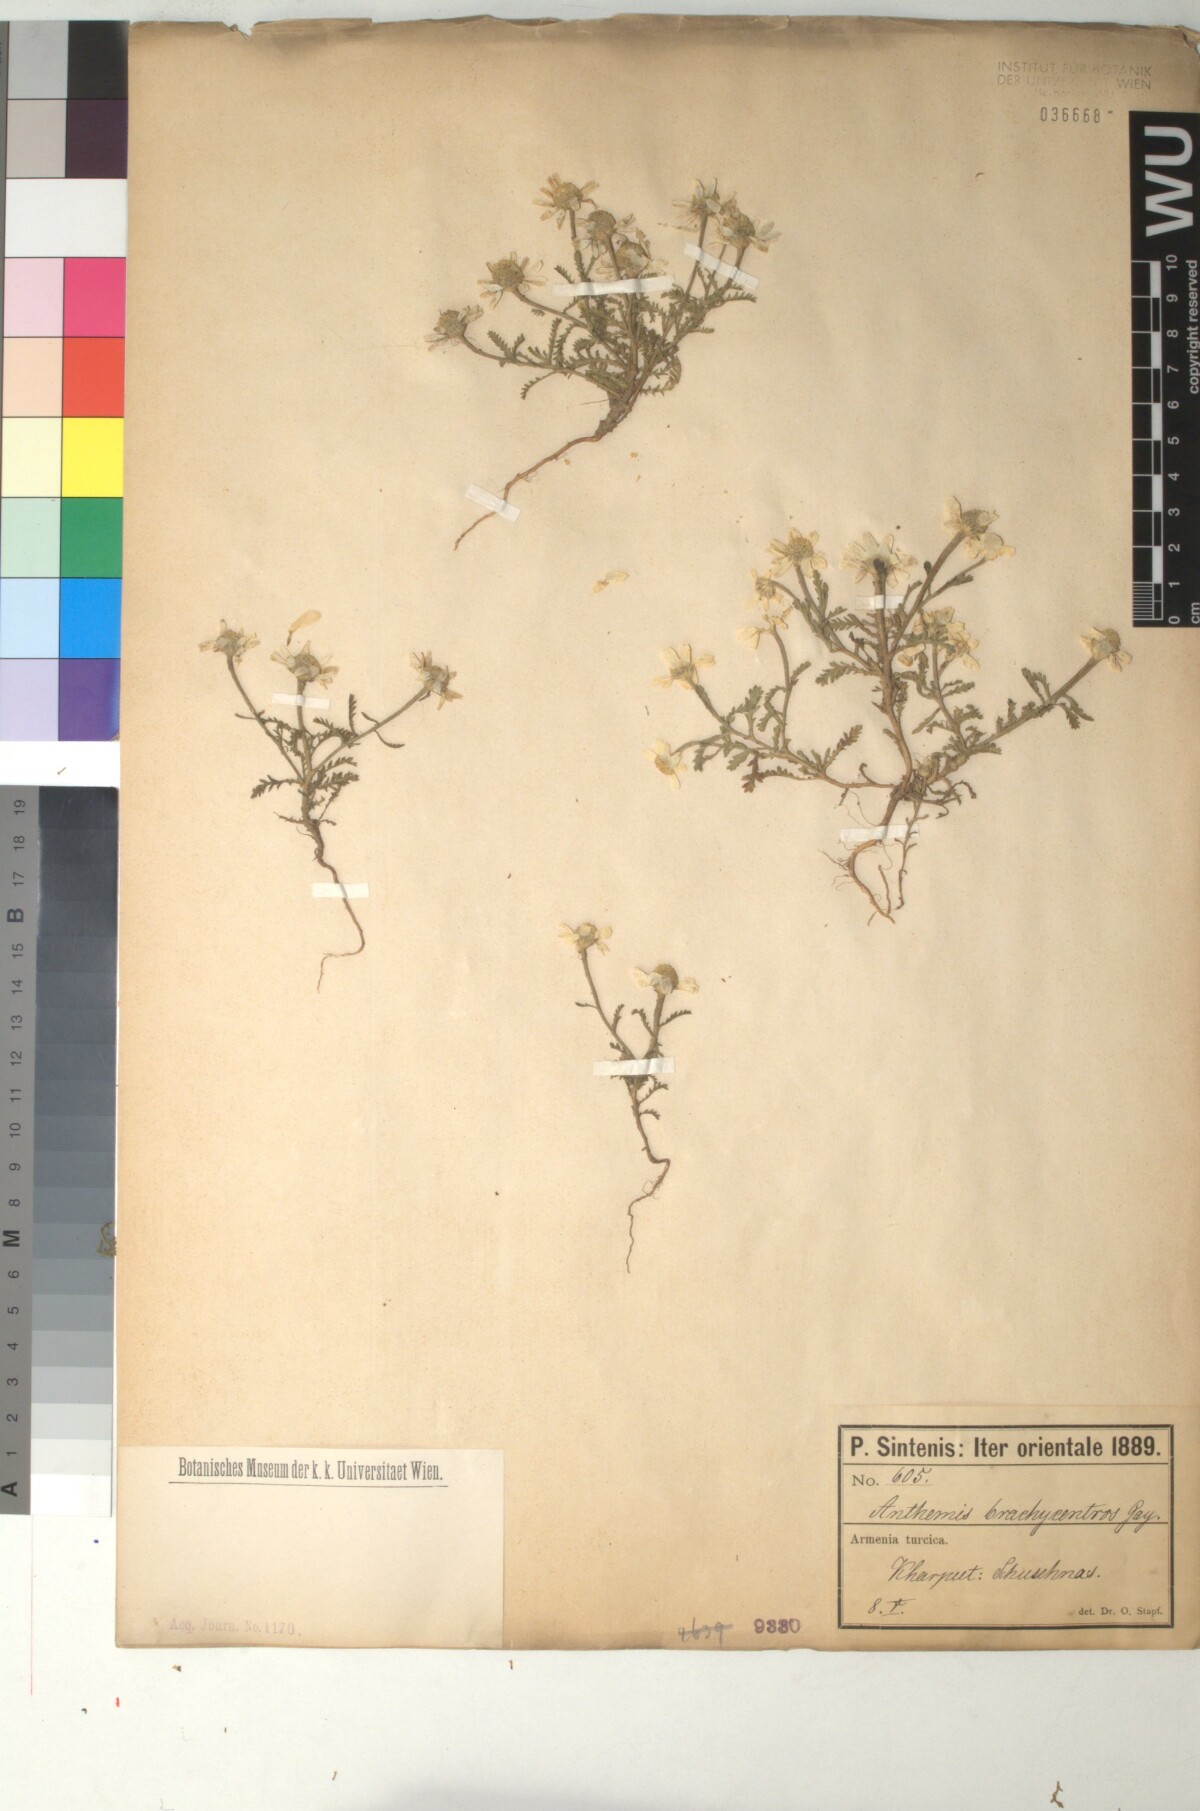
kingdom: Plantae
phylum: Tracheophyta
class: Magnoliopsida
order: Asterales
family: Asteraceae
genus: Cota
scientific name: Cota segetalis
